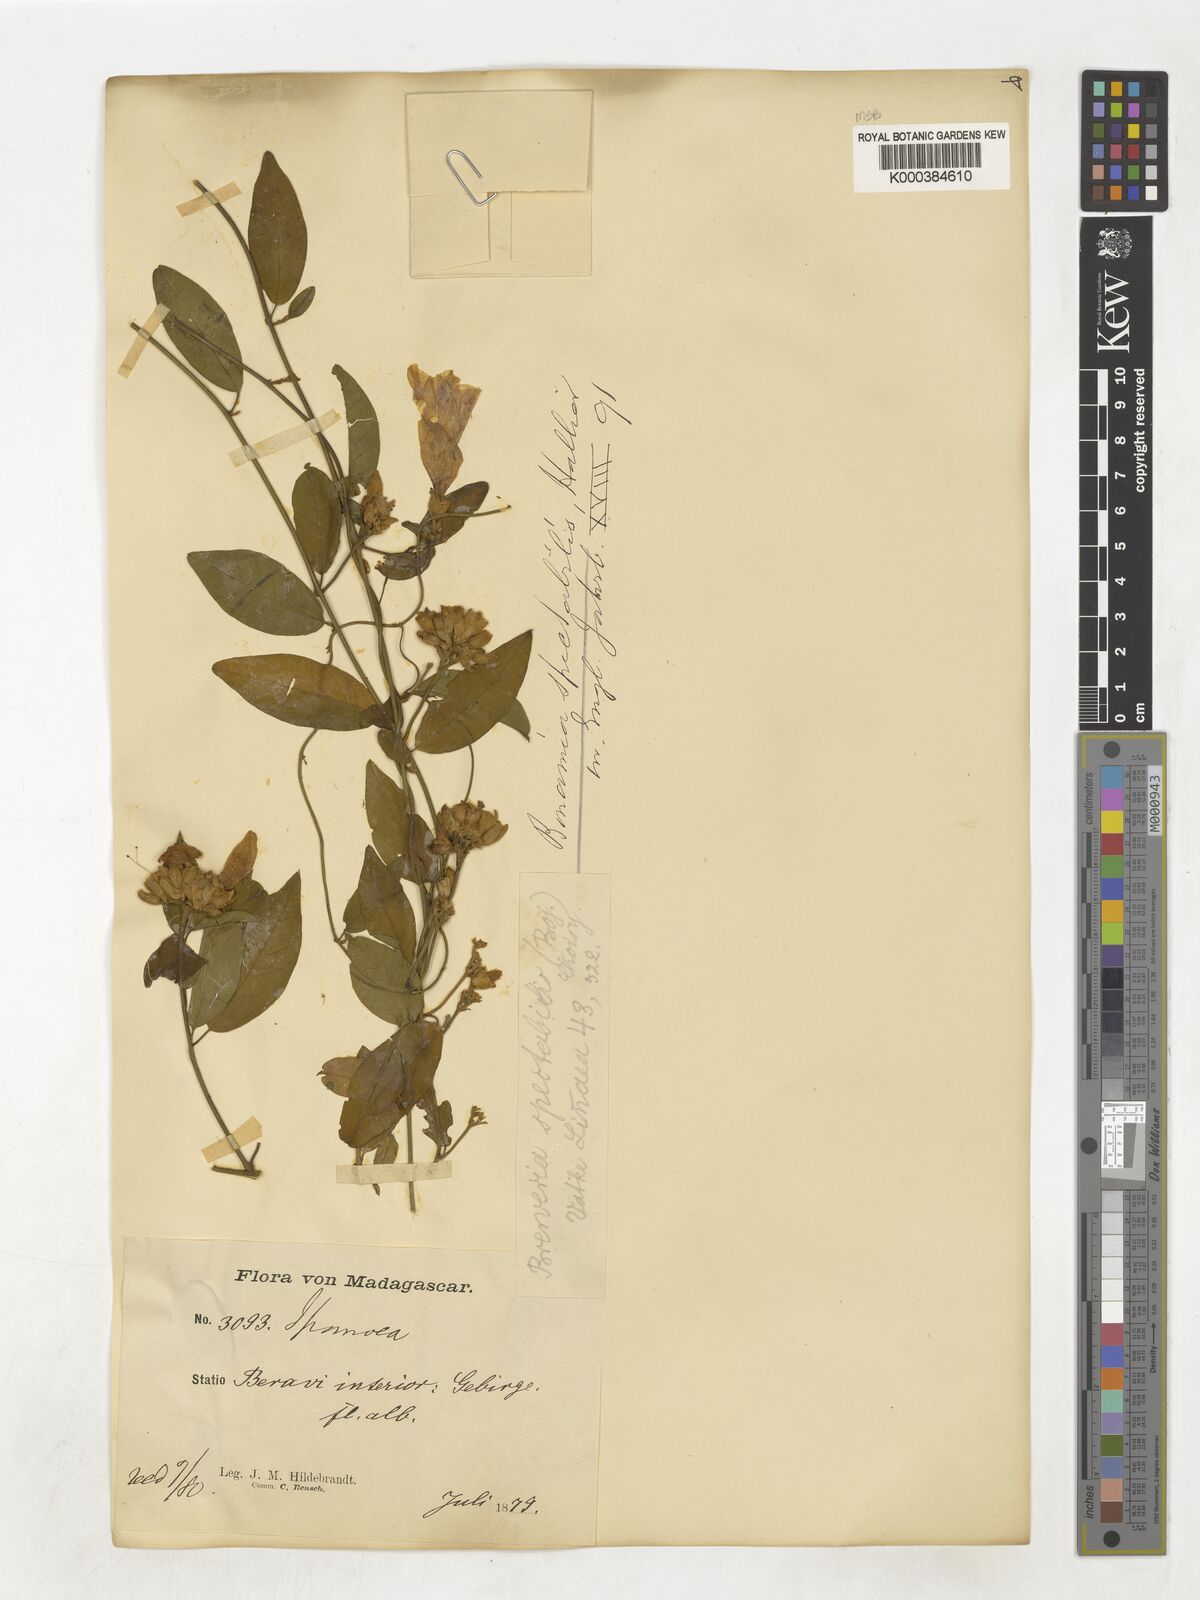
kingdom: Plantae
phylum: Tracheophyta
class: Magnoliopsida
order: Solanales
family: Convolvulaceae
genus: Bonamia
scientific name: Bonamia spectabilis
